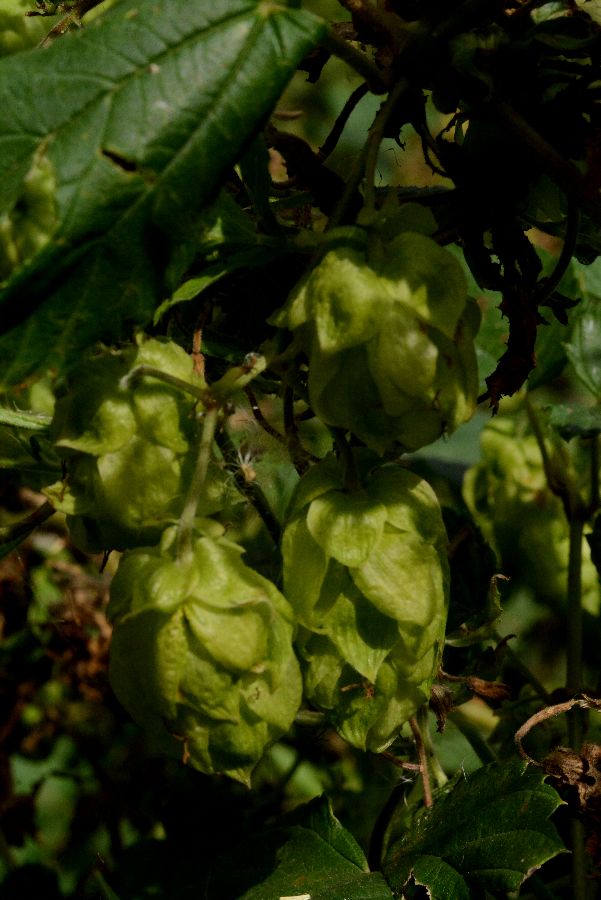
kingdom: Plantae
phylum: Tracheophyta
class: Magnoliopsida
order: Rosales
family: Cannabaceae
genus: Humulus
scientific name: Humulus lupulus
